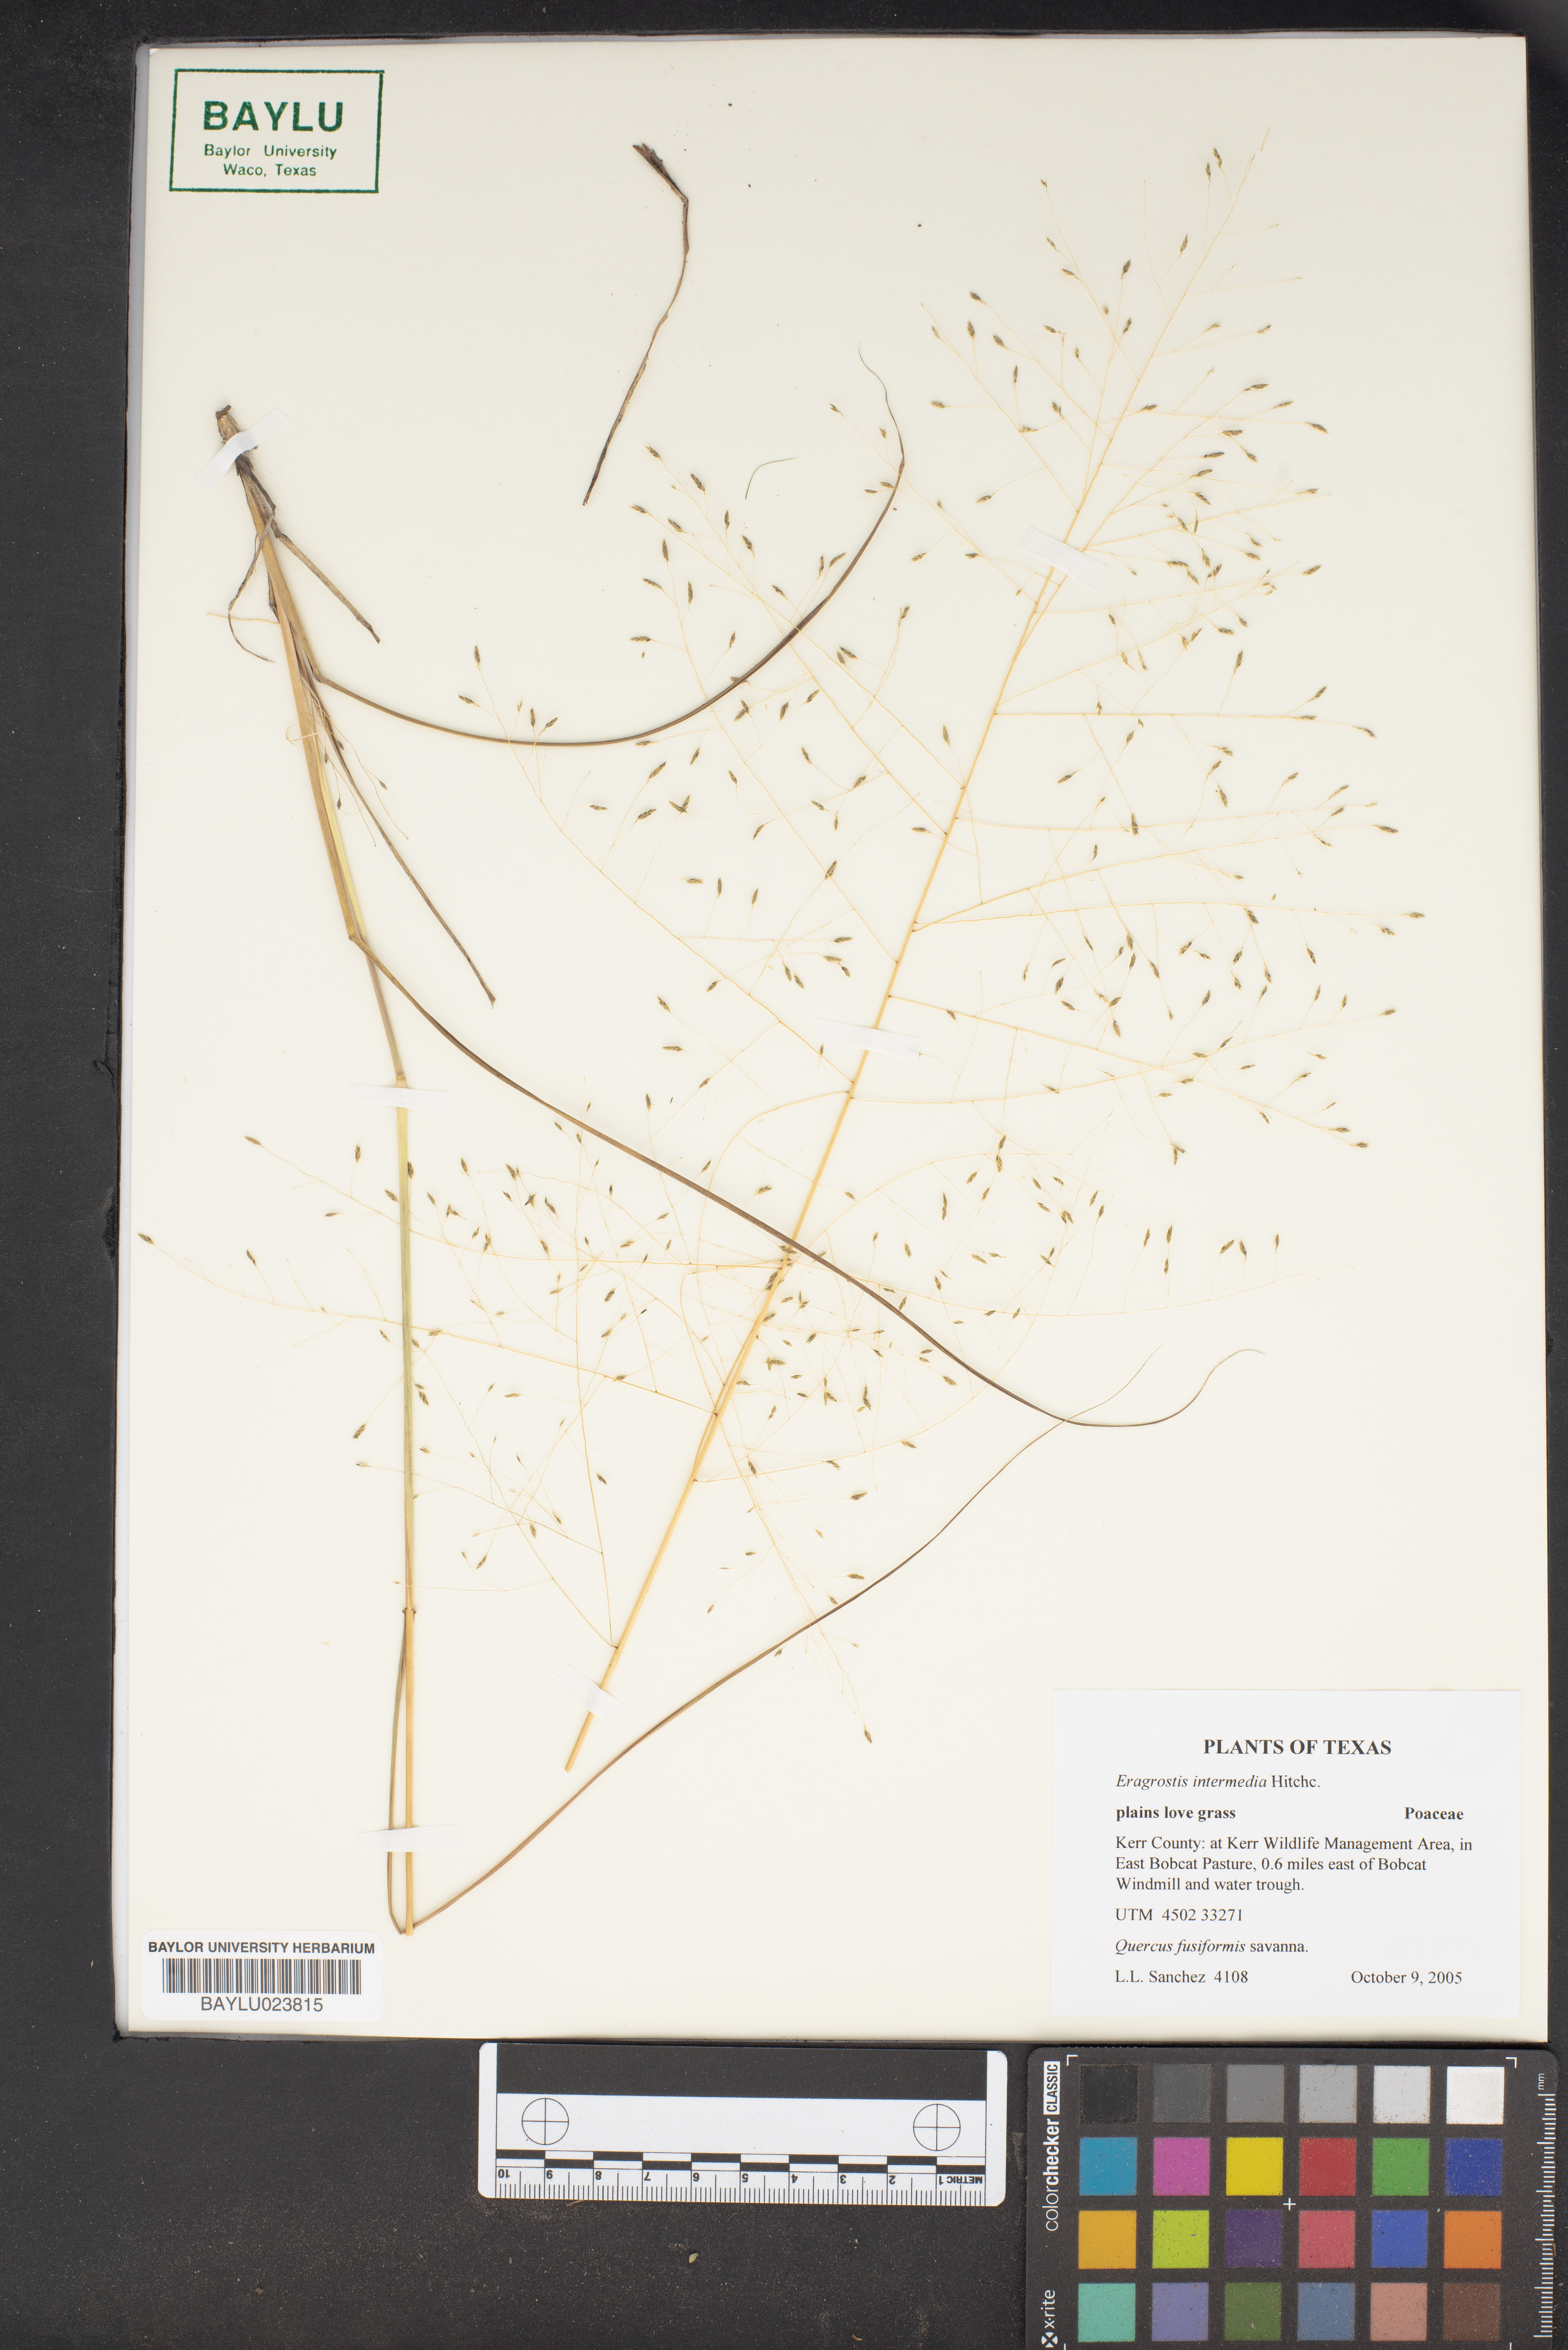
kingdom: Plantae
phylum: Tracheophyta
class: Liliopsida
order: Poales
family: Poaceae
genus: Eragrostis
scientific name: Eragrostis intermedia
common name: Plains love grass
